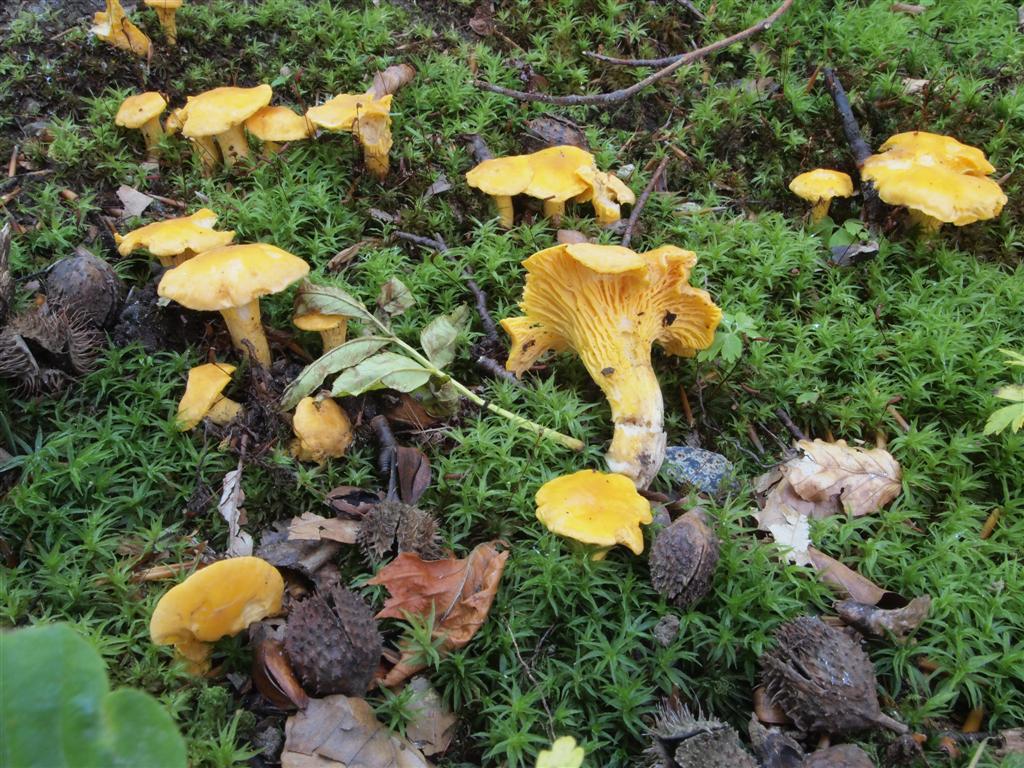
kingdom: Fungi
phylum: Basidiomycota
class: Agaricomycetes
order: Cantharellales
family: Hydnaceae
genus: Cantharellus
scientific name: Cantharellus pallens
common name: bleg kantarel
